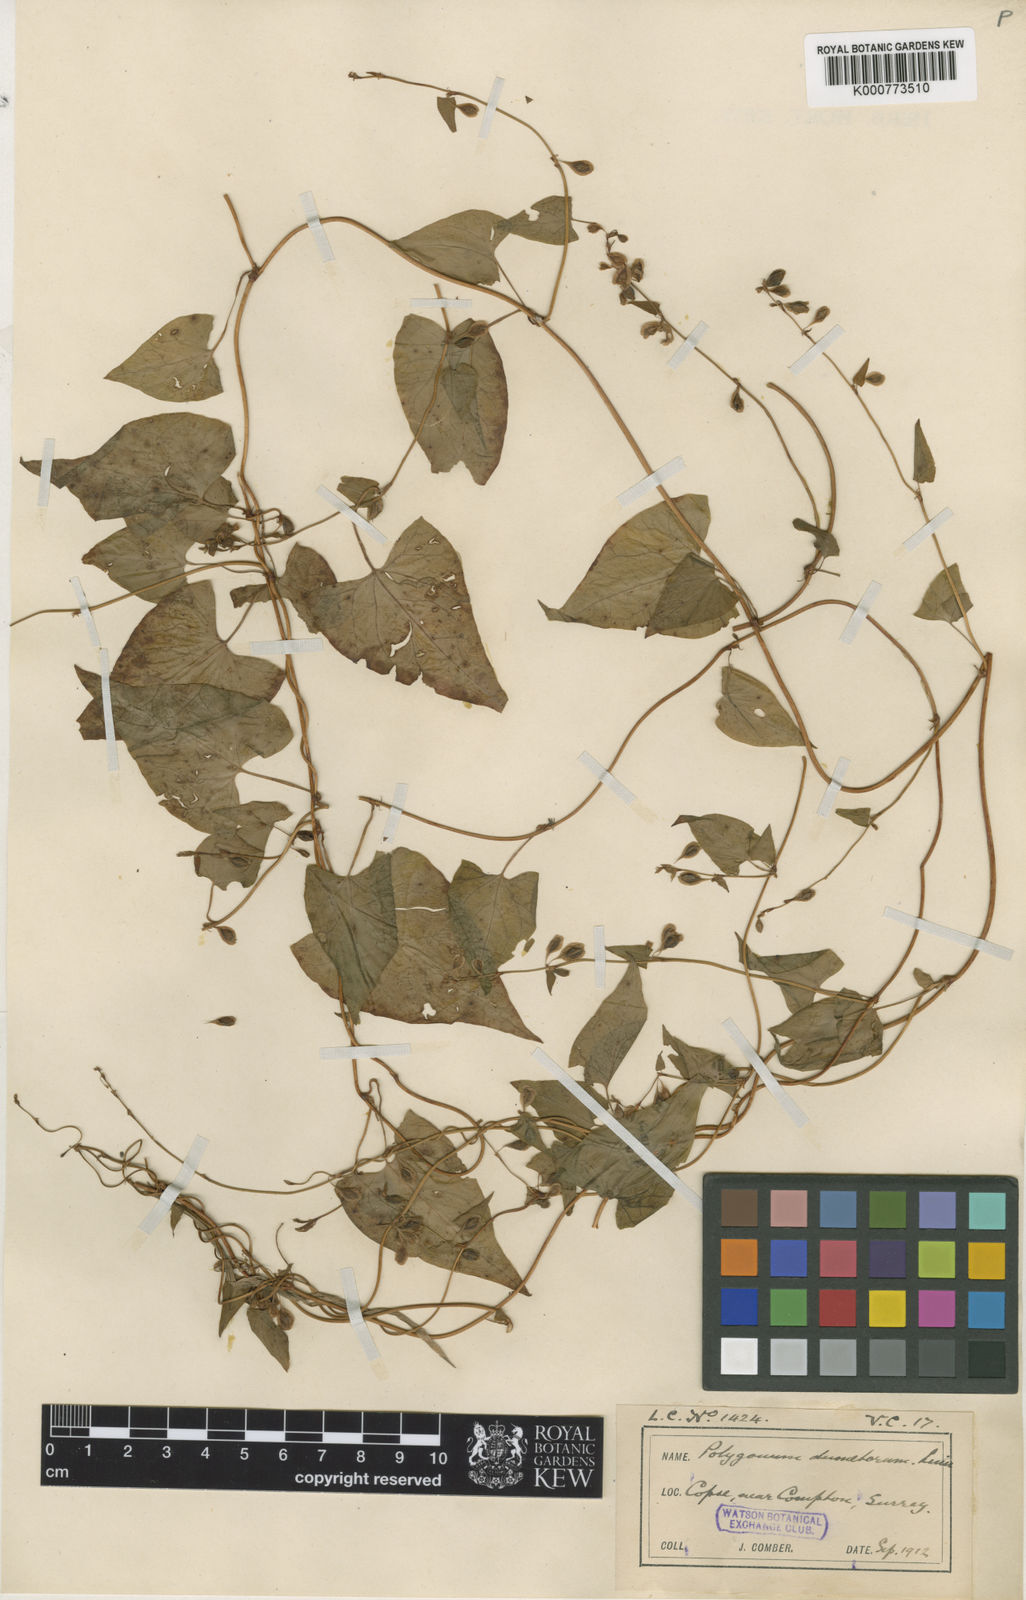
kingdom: Plantae
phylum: Tracheophyta
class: Magnoliopsida
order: Caryophyllales
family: Polygonaceae
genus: Fallopia
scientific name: Fallopia dumetorum
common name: Copse-bindweed
